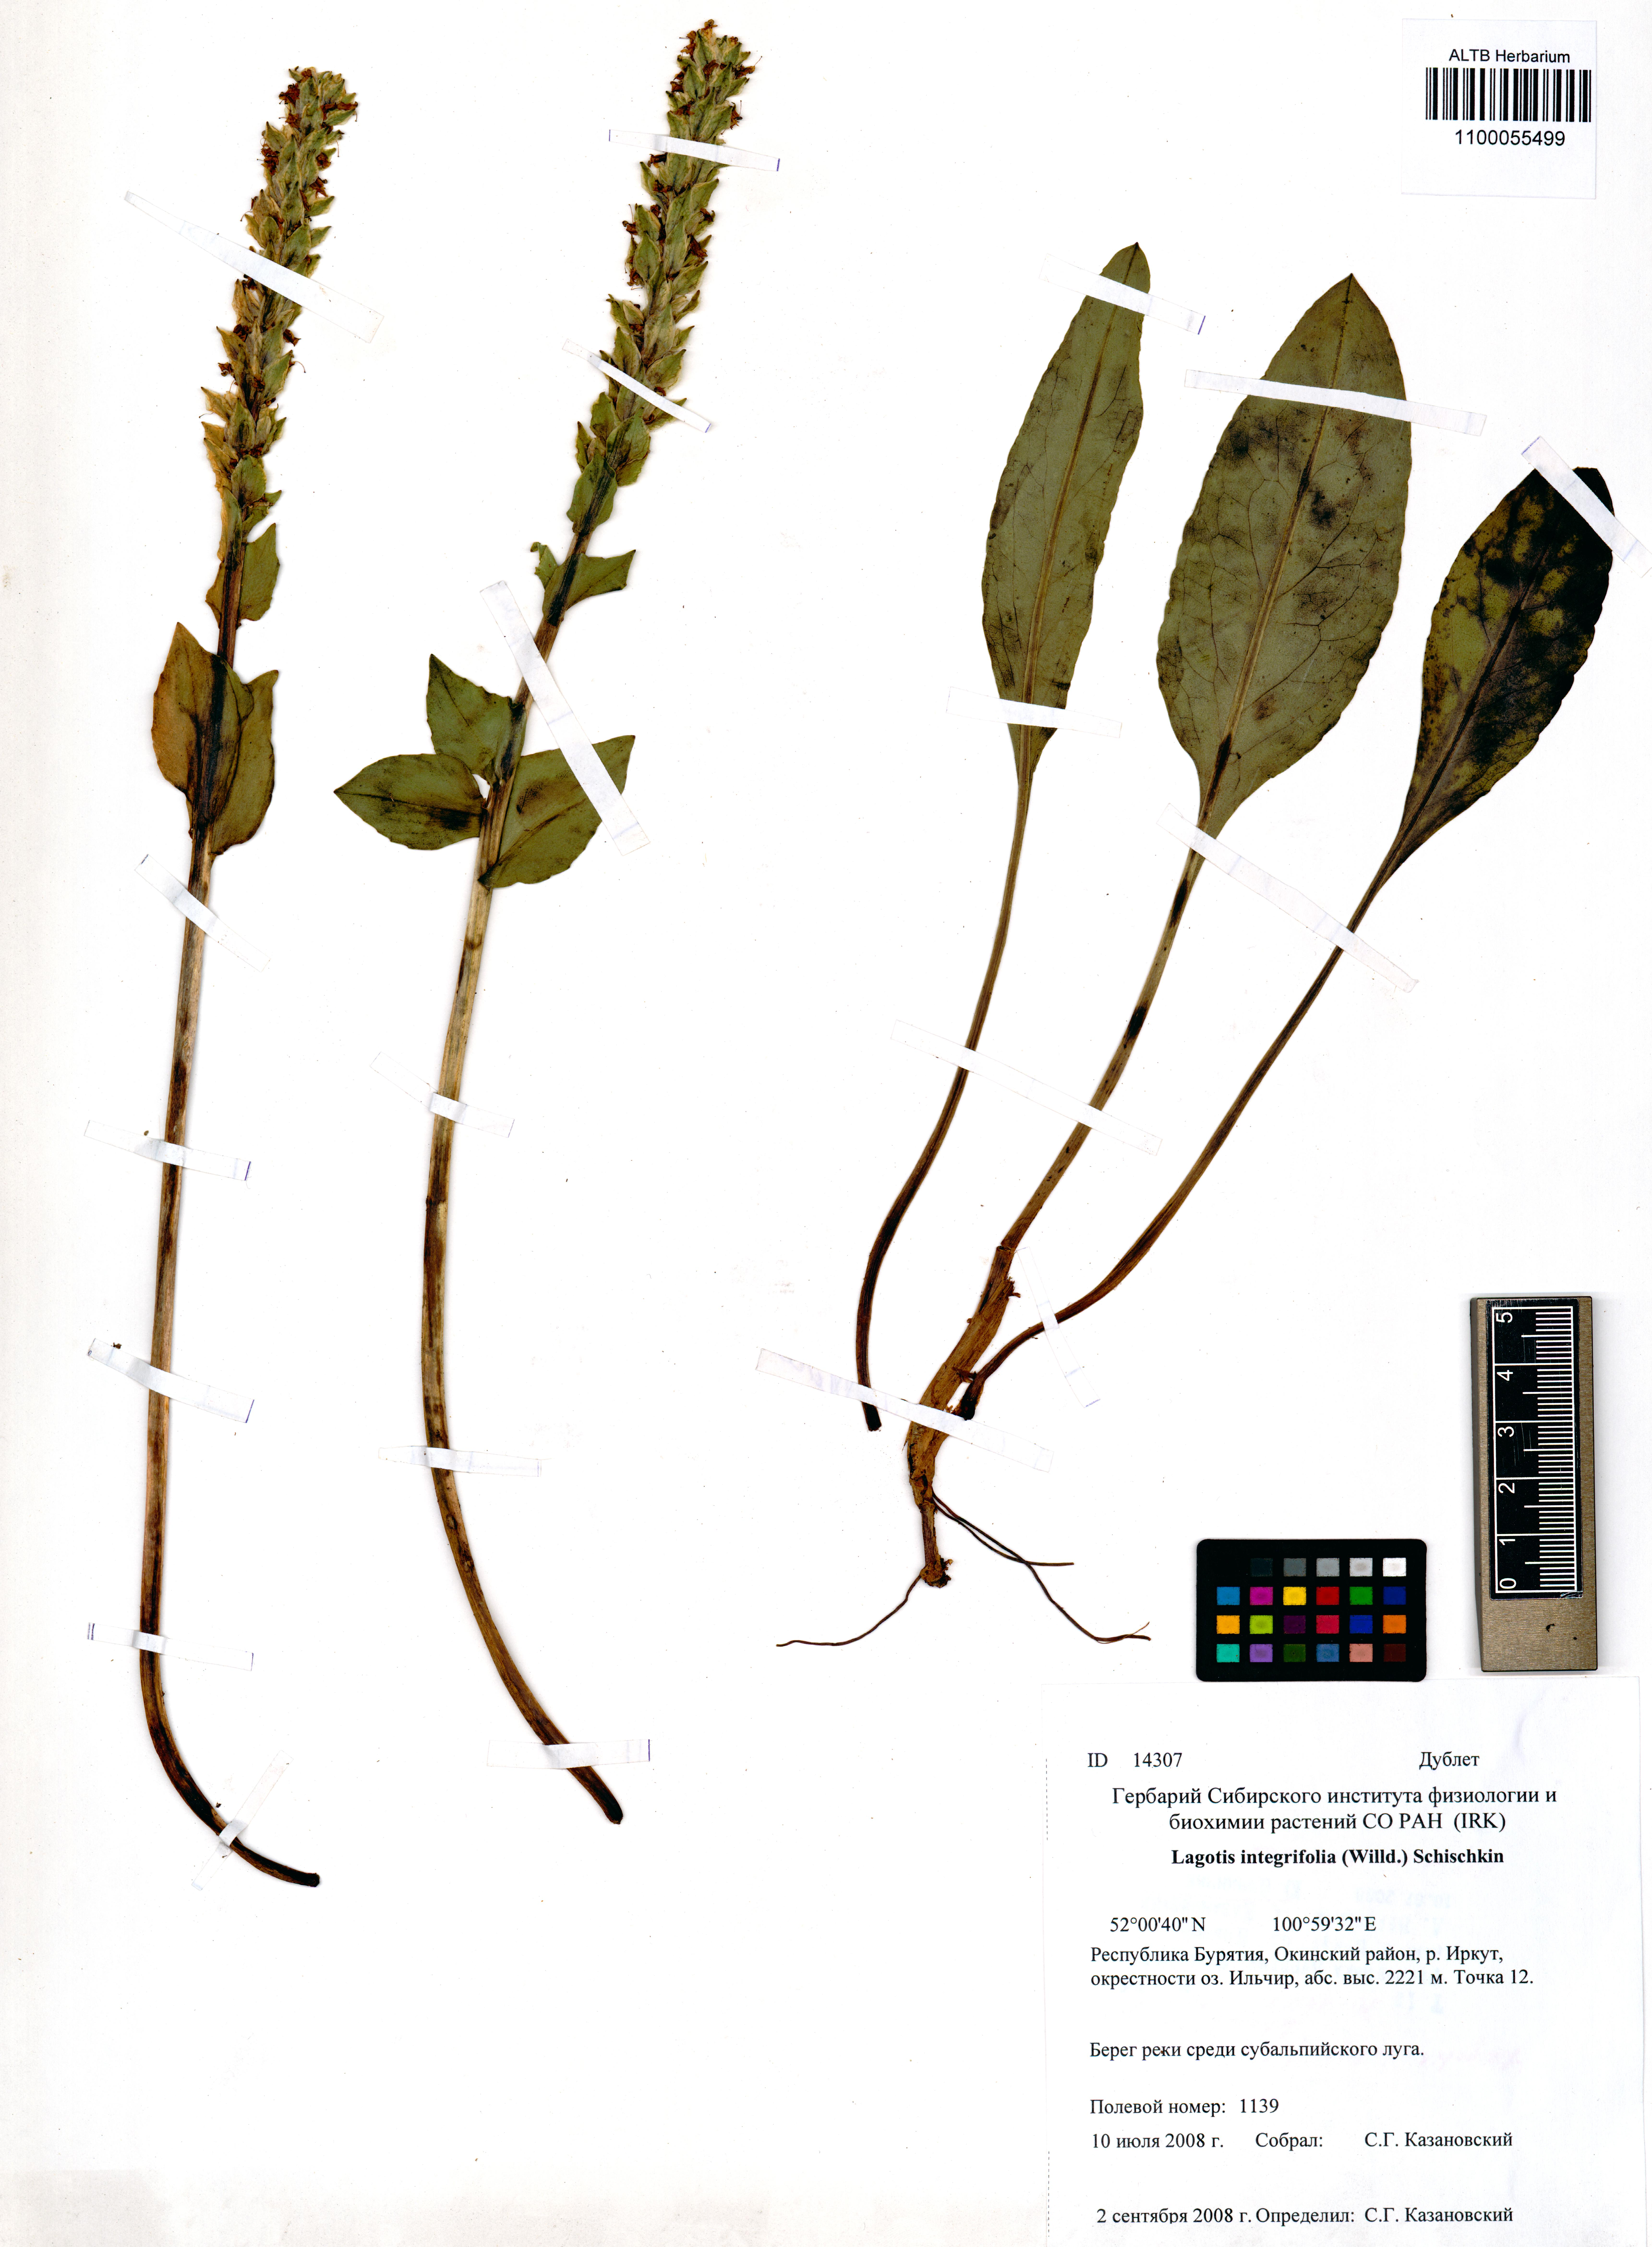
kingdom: Plantae
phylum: Tracheophyta
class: Magnoliopsida
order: Lamiales
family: Plantaginaceae
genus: Lagotis
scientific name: Lagotis integrifolia
